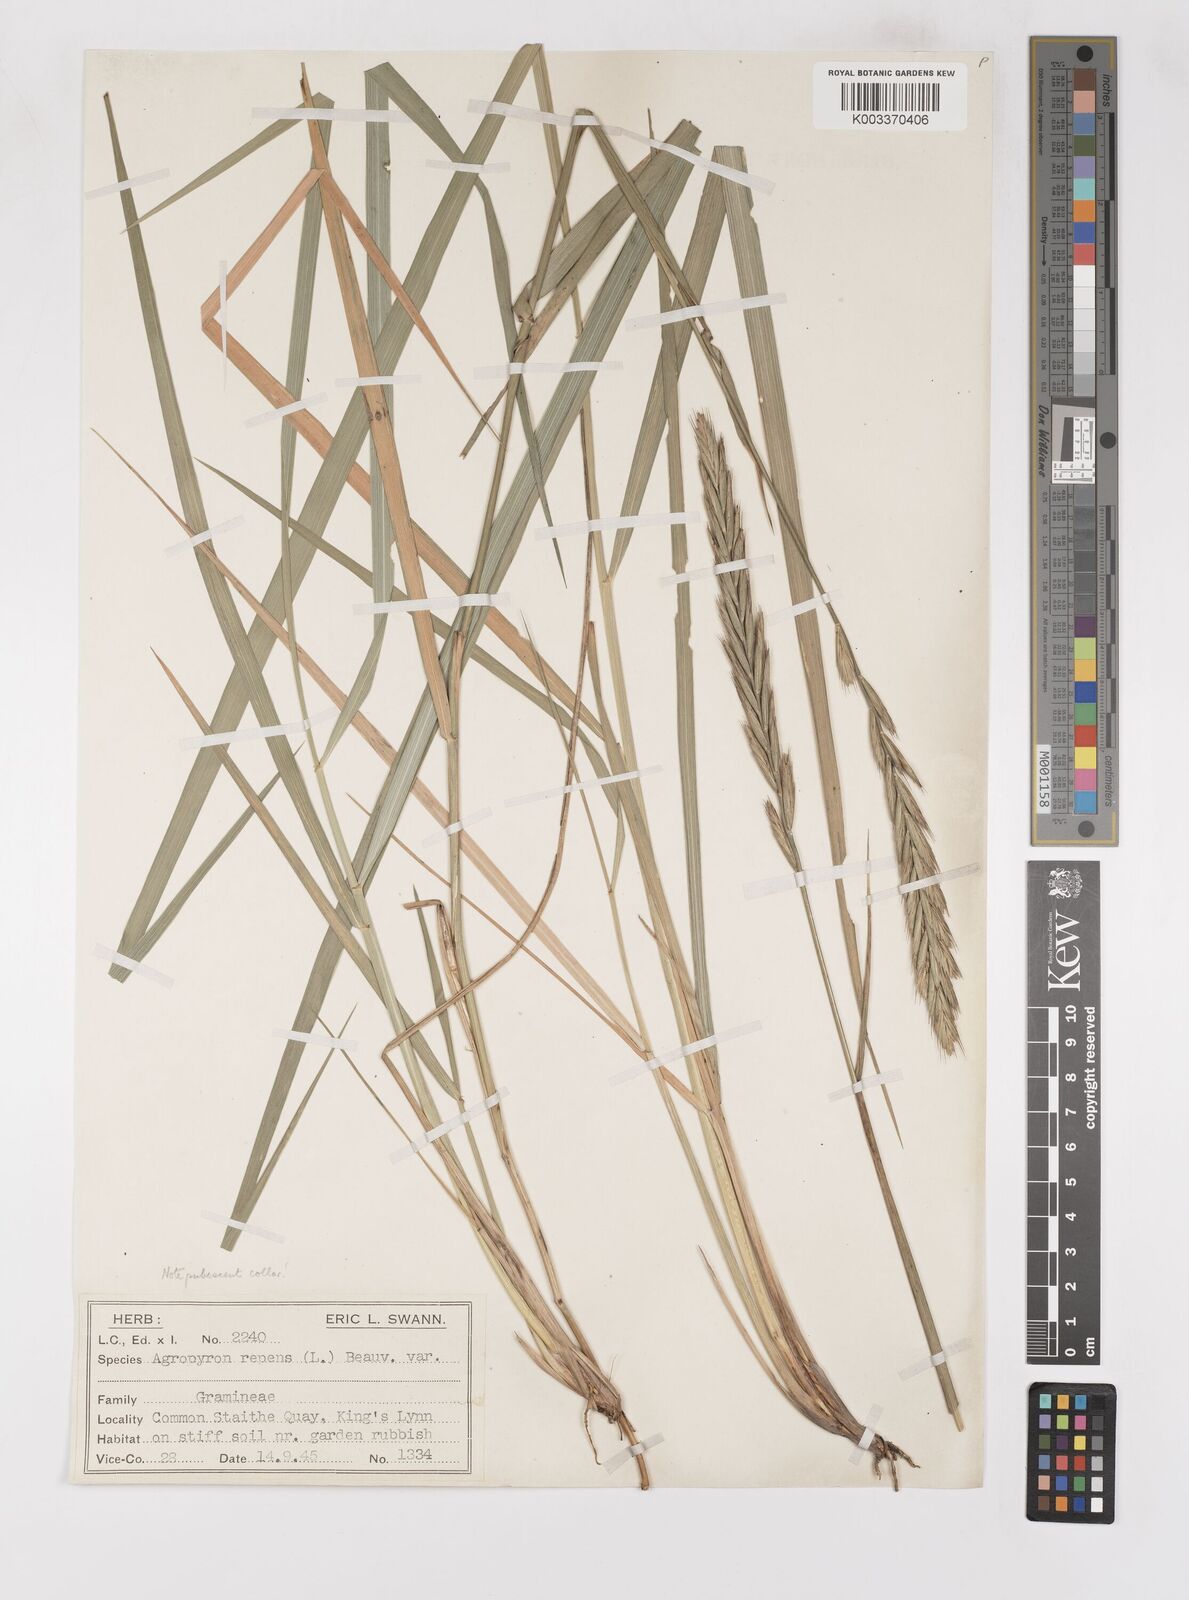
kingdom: Plantae
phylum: Tracheophyta
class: Liliopsida
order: Poales
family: Poaceae
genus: Elymus
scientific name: Elymus oliveri
